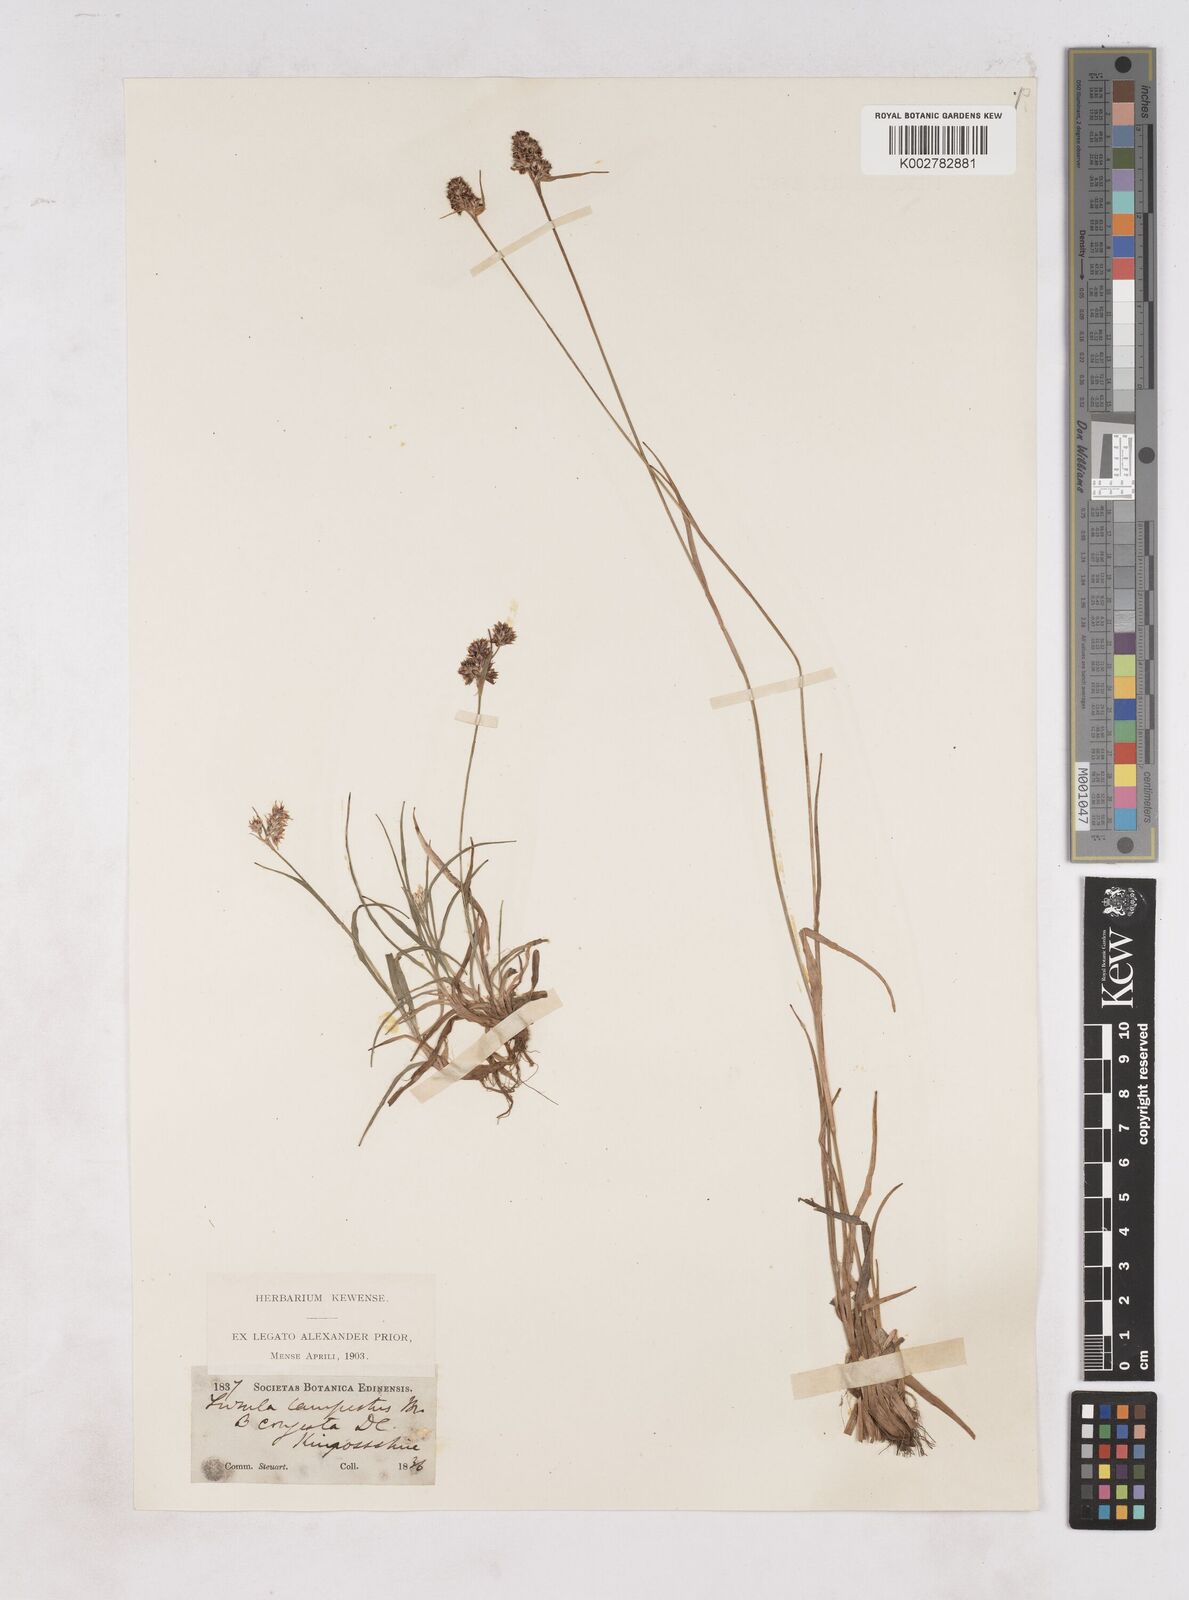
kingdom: Plantae
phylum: Tracheophyta
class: Liliopsida
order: Poales
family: Juncaceae
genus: Luzula
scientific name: Luzula campestris
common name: Field wood-rush
